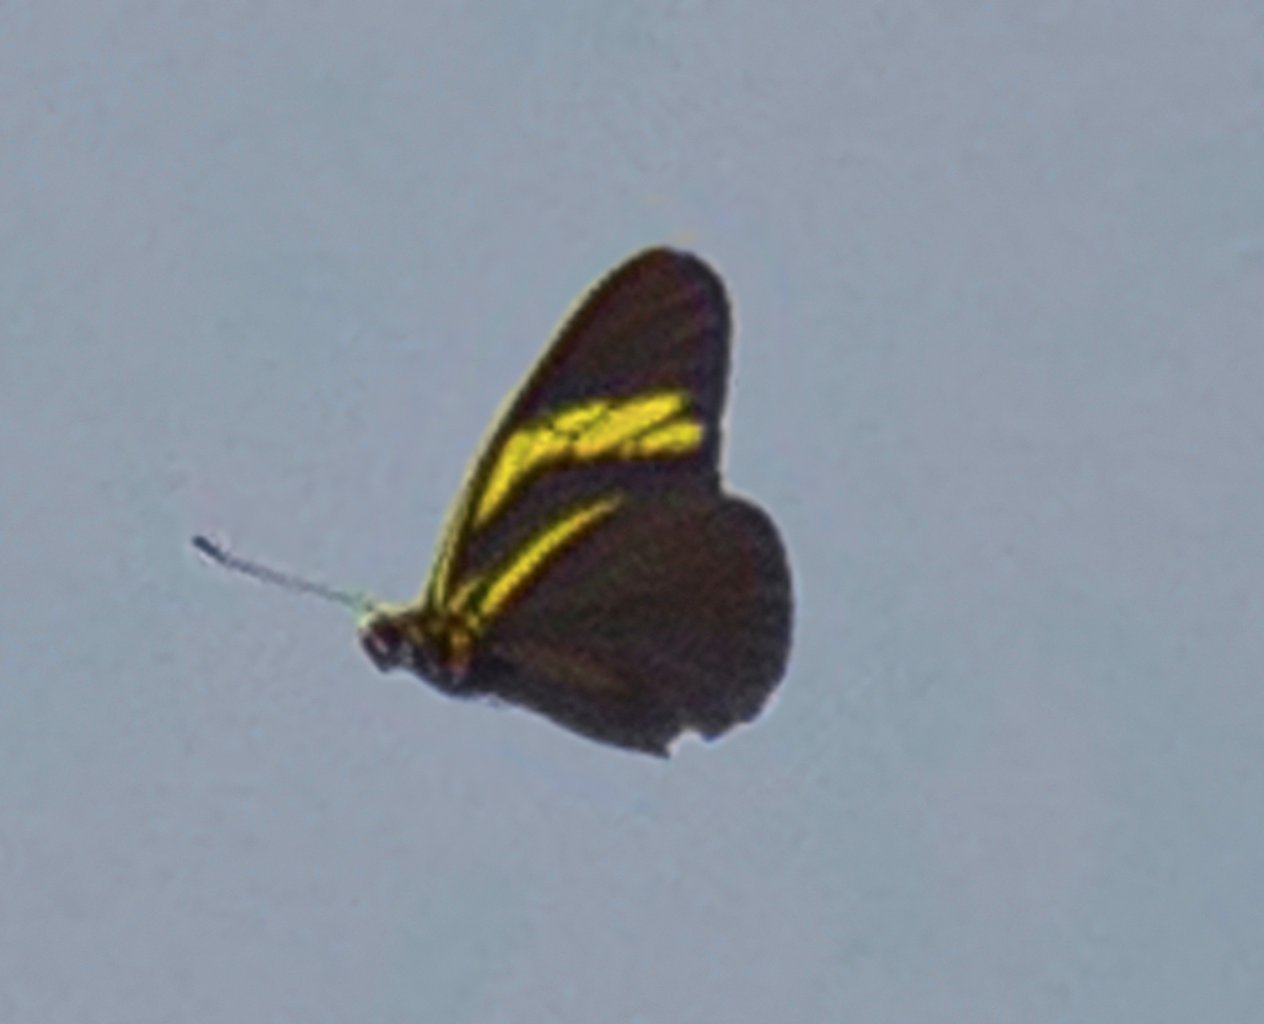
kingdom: Animalia
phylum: Arthropoda
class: Insecta
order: Lepidoptera
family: Pieridae
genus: Pereute
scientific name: Pereute charops
